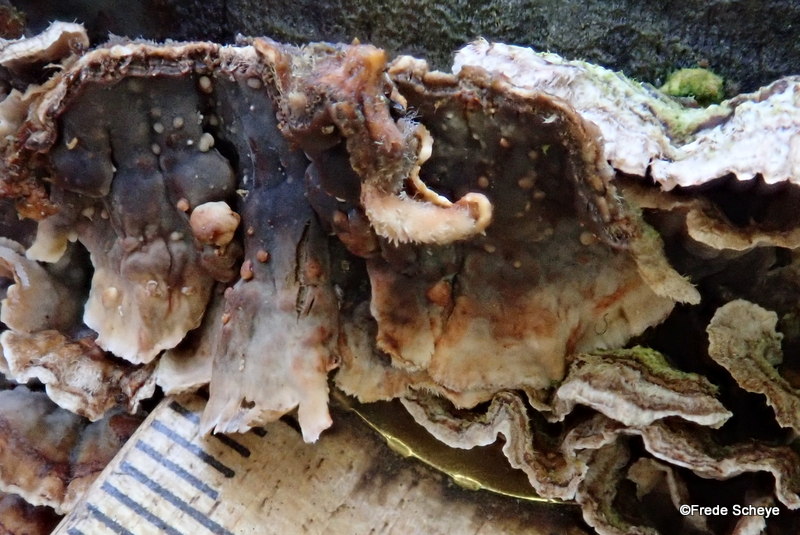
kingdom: Fungi
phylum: Basidiomycota
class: Agaricomycetes
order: Russulales
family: Stereaceae
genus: Stereum
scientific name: Stereum sanguinolentum
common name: blødende lædersvamp
